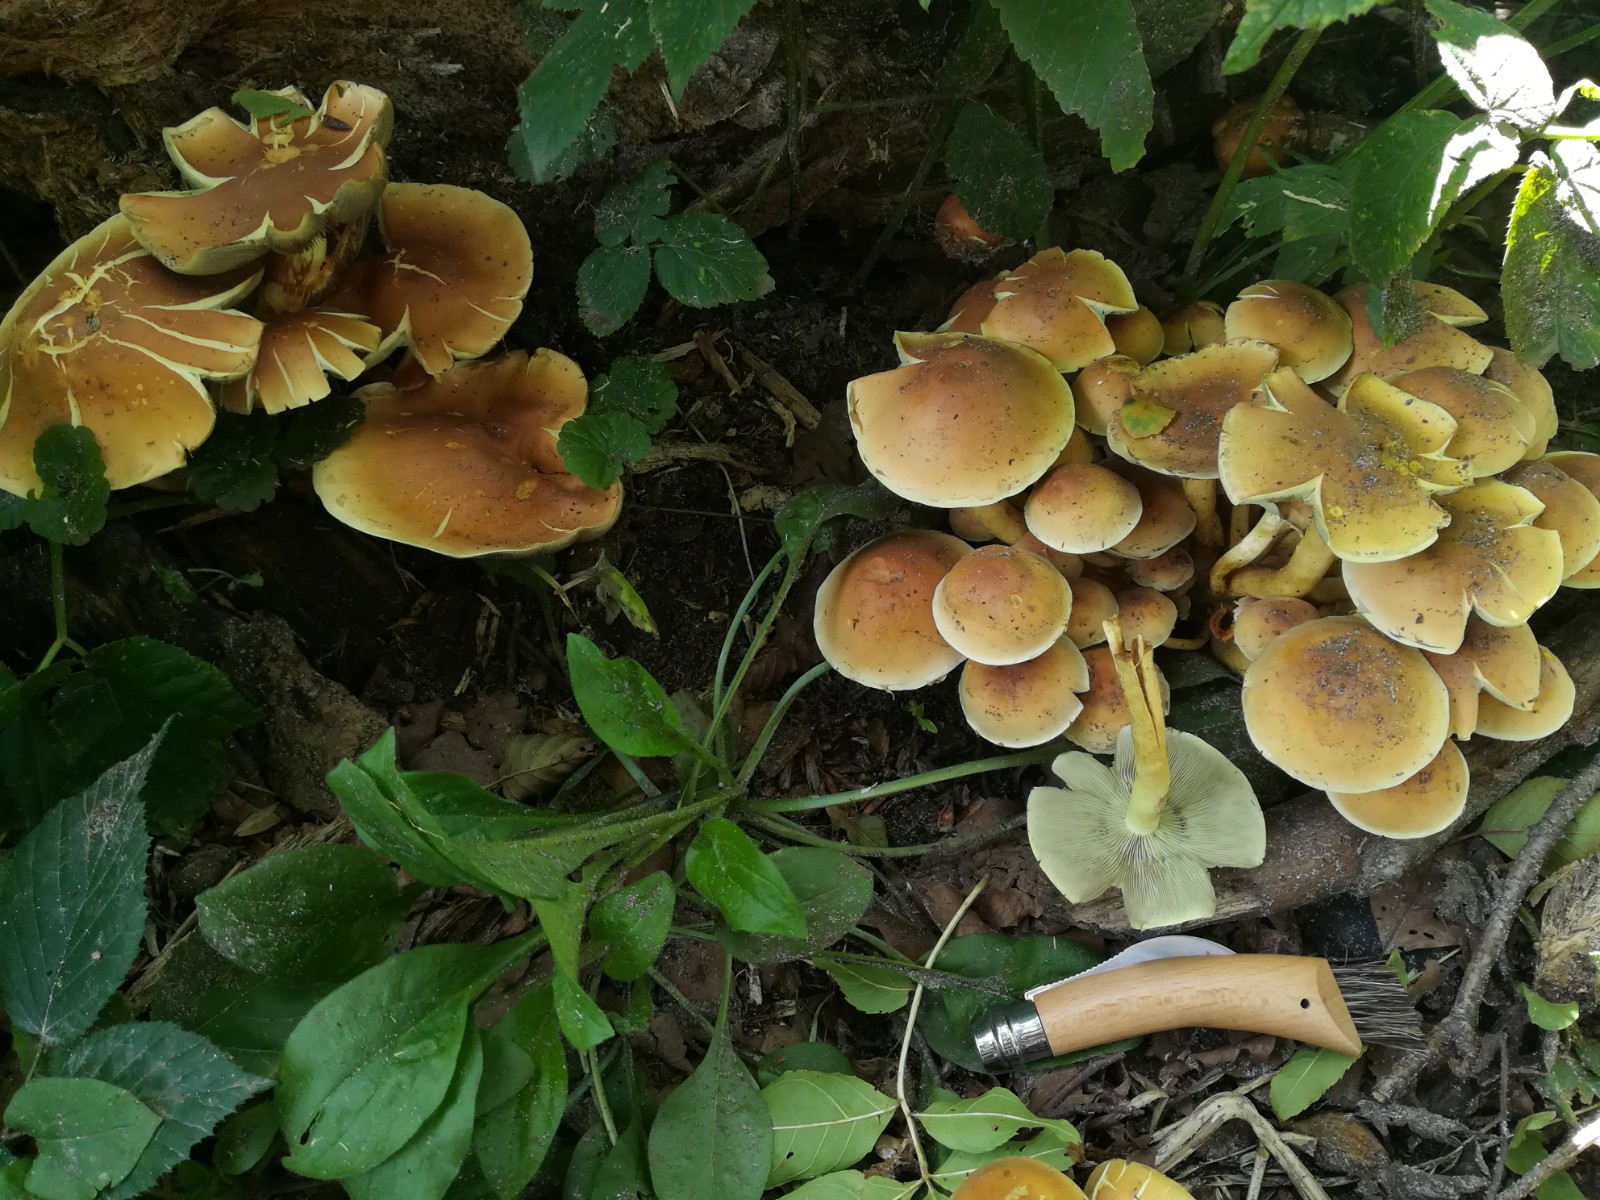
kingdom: Fungi
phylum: Basidiomycota
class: Agaricomycetes
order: Agaricales
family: Strophariaceae
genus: Hypholoma
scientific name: Hypholoma fasciculare
